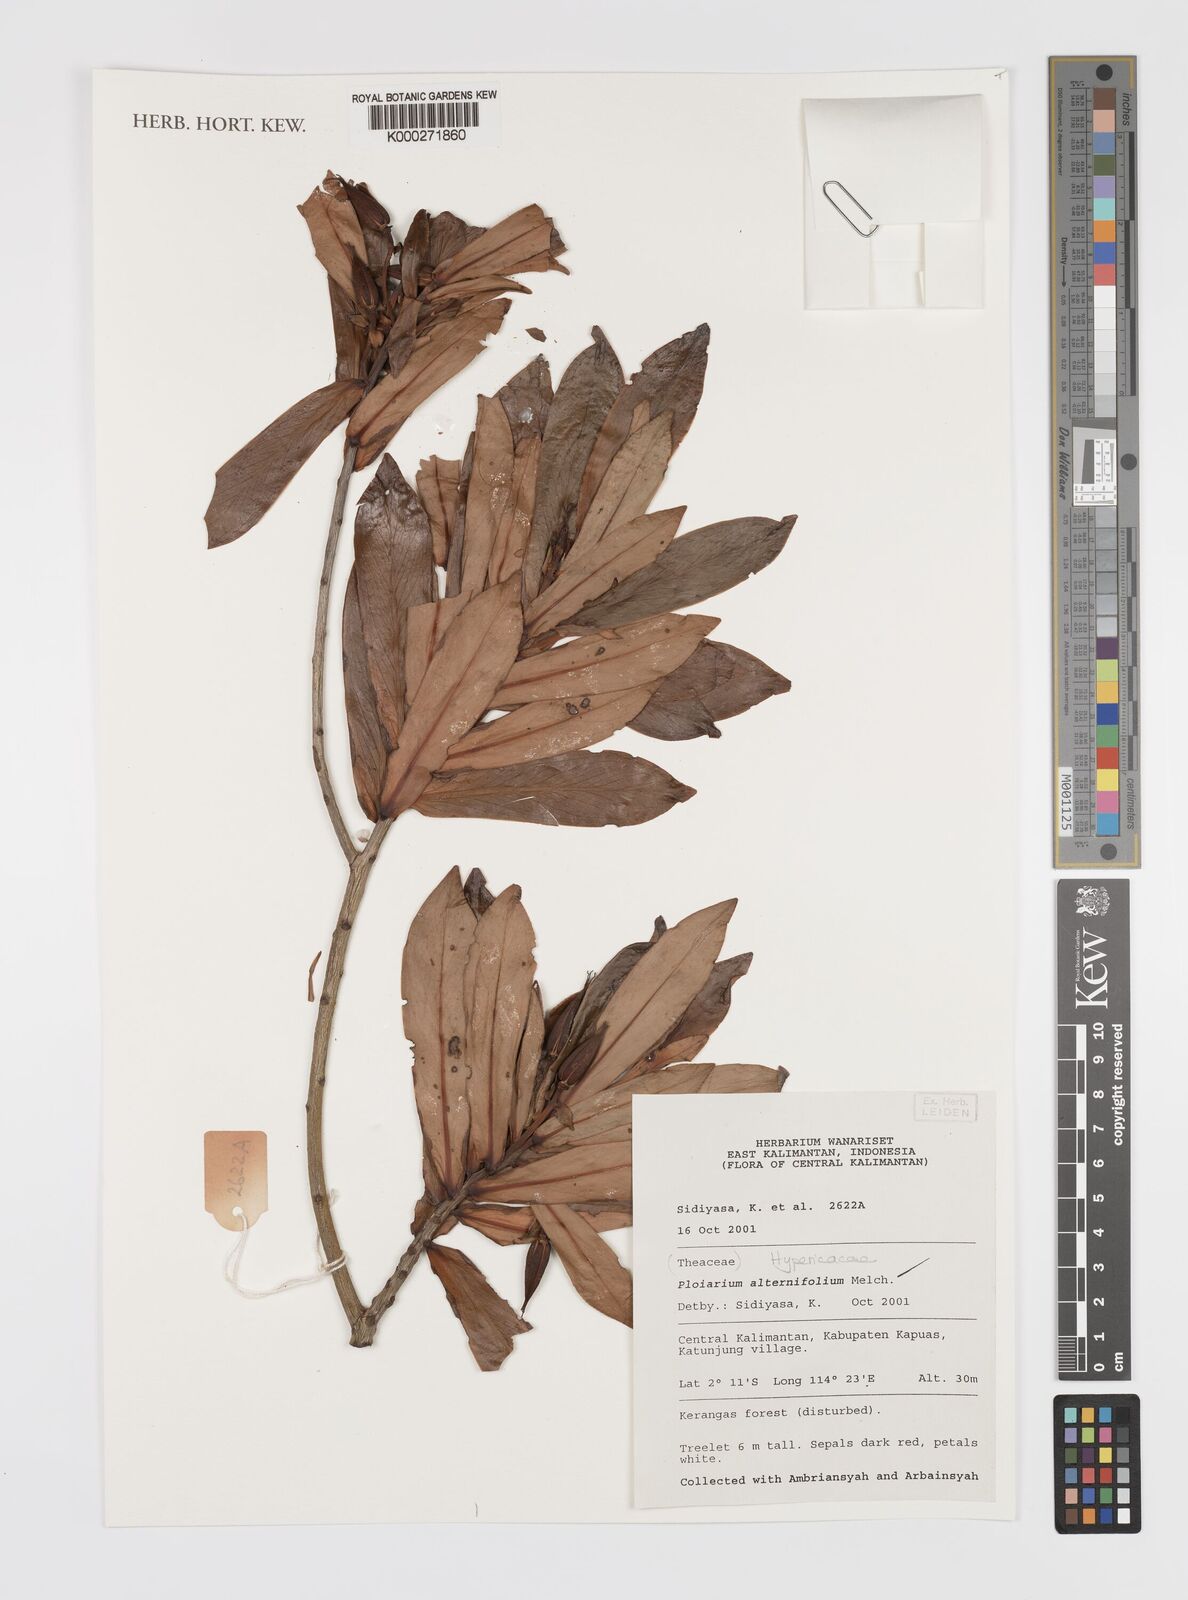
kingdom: Plantae
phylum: Tracheophyta
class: Magnoliopsida
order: Malpighiales
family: Bonnetiaceae
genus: Ploiarium
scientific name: Ploiarium alternifolium
